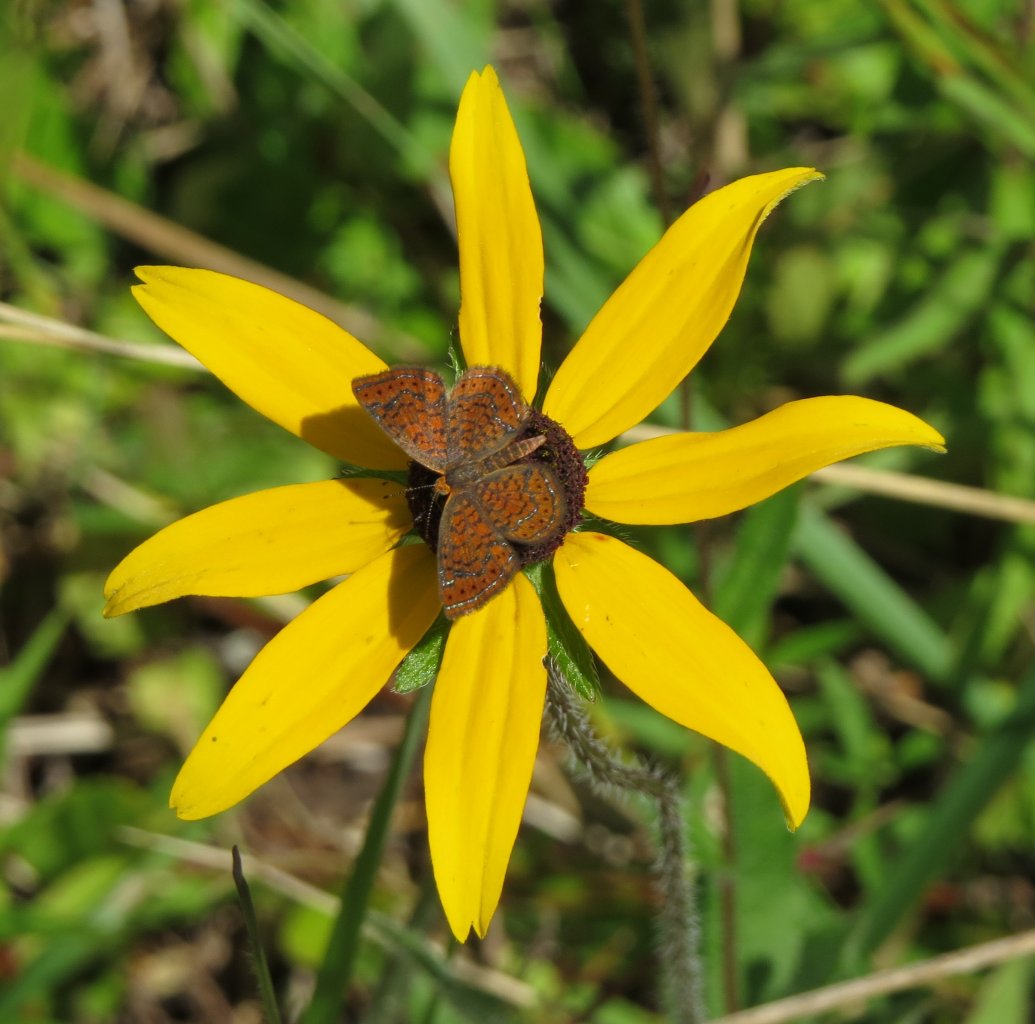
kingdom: Animalia
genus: Calephelis
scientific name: Calephelis virginiensis
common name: Little Metalmark
